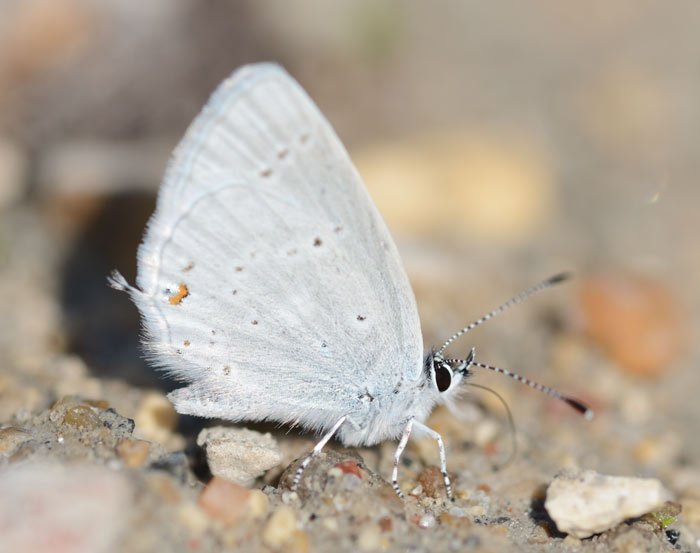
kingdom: Animalia
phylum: Arthropoda
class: Insecta
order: Lepidoptera
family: Lycaenidae
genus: Elkalyce
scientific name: Elkalyce amyntula
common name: Western Tailed-Blue
